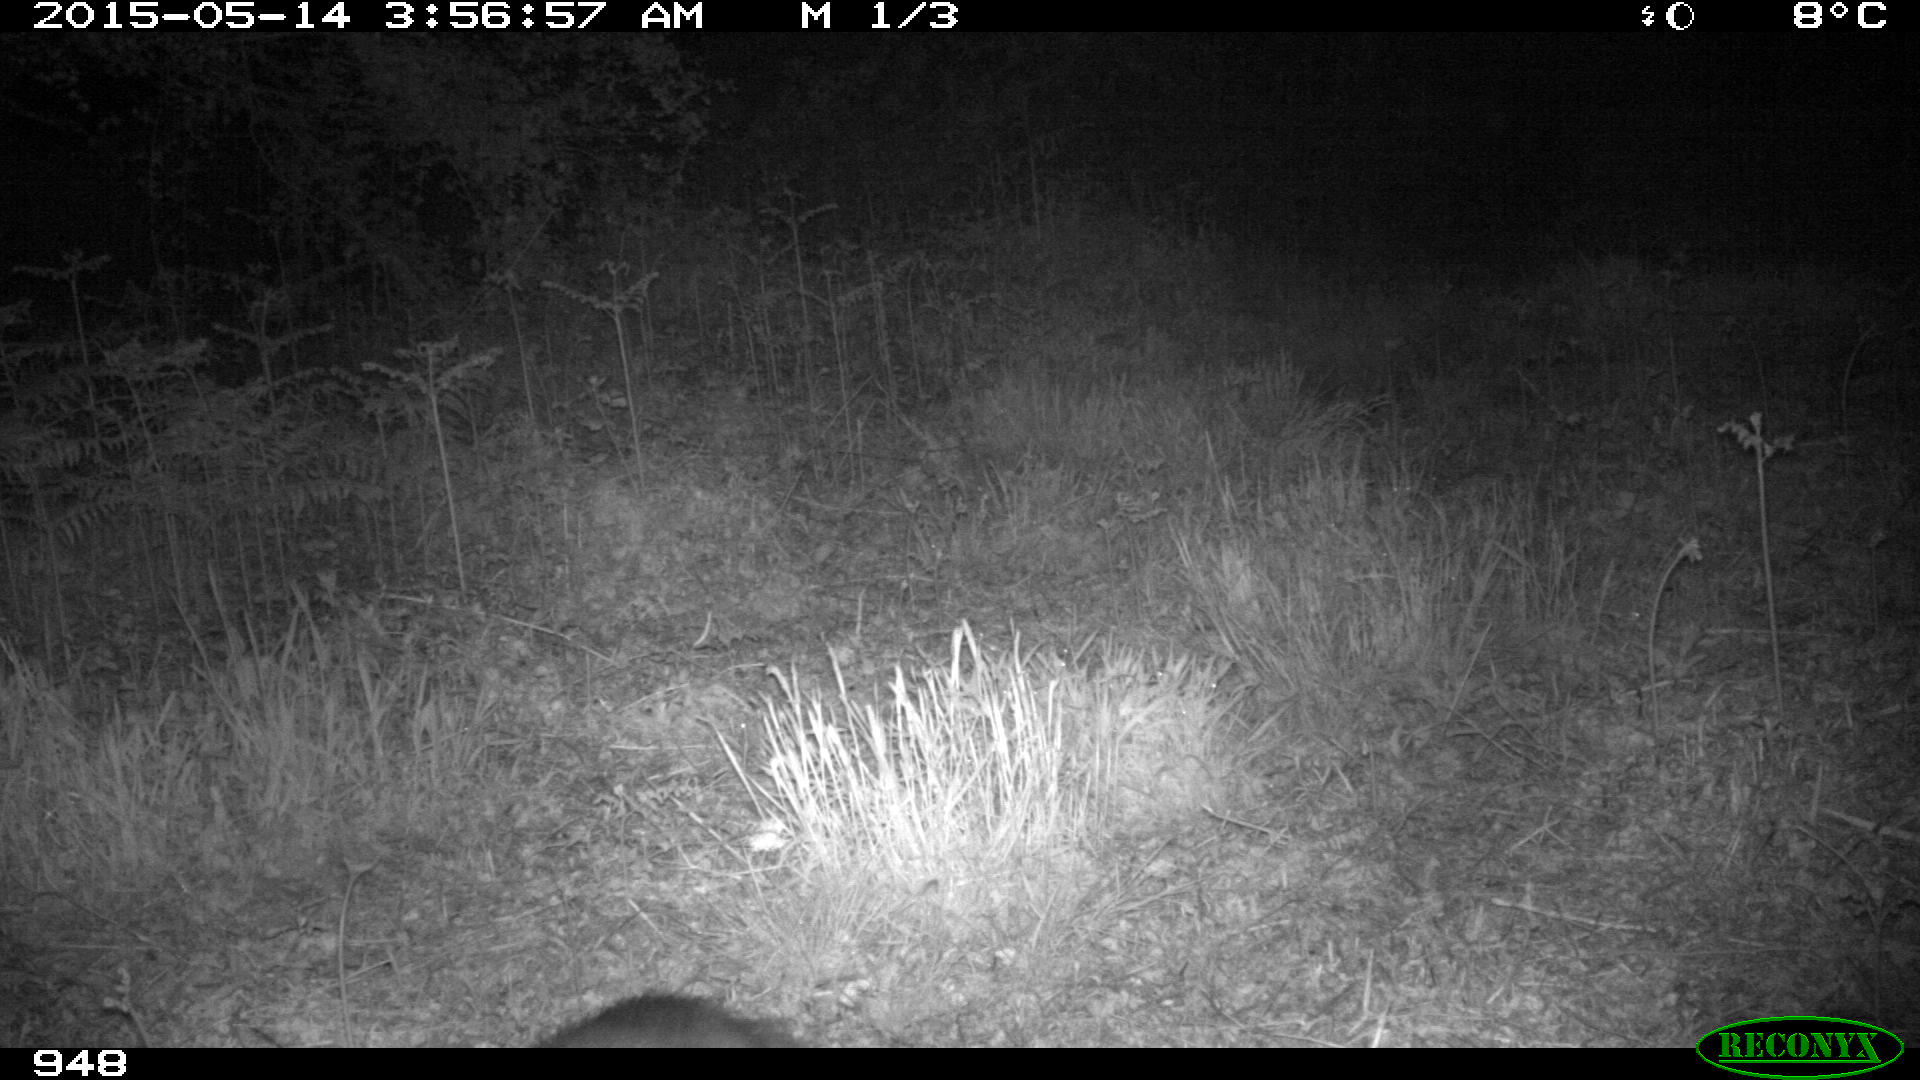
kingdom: Animalia
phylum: Chordata
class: Mammalia
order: Carnivora
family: Mustelidae
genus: Meles
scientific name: Meles meles
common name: Eurasian badger
